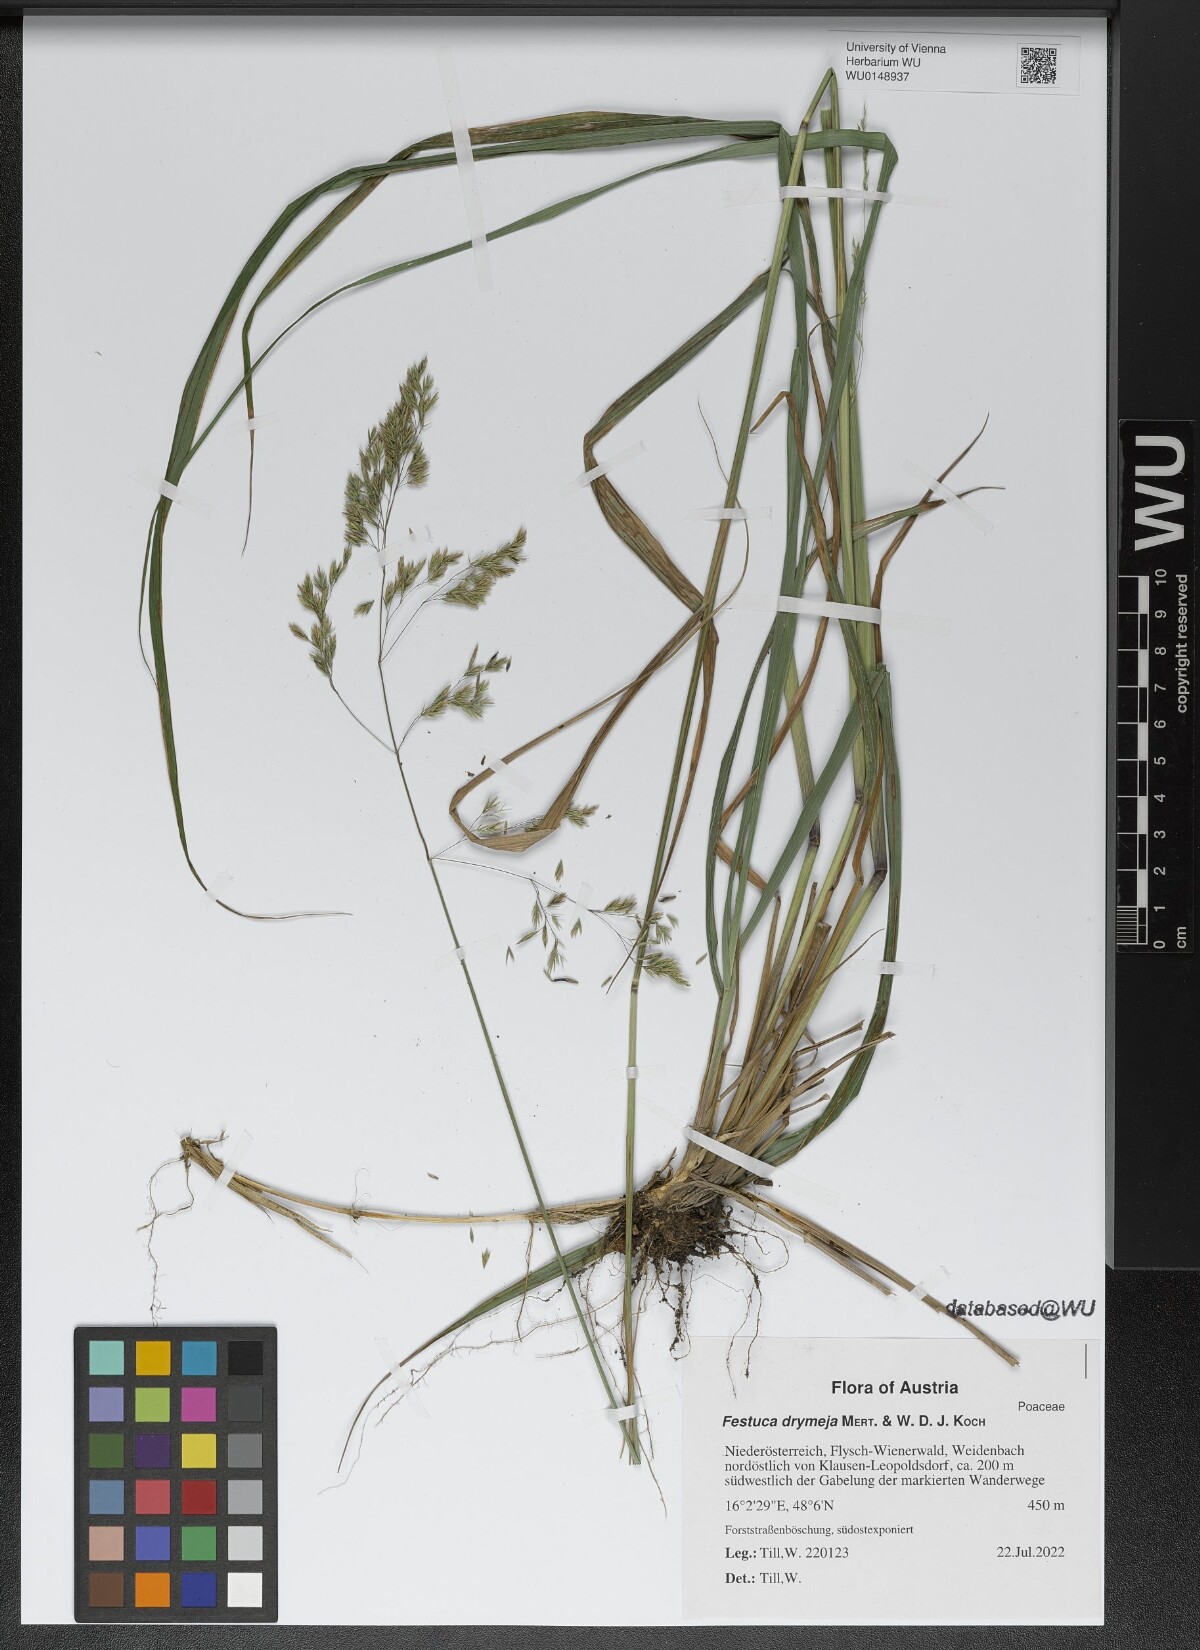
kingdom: Plantae
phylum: Tracheophyta
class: Liliopsida
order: Poales
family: Poaceae
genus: Festuca
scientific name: Festuca drymeja
